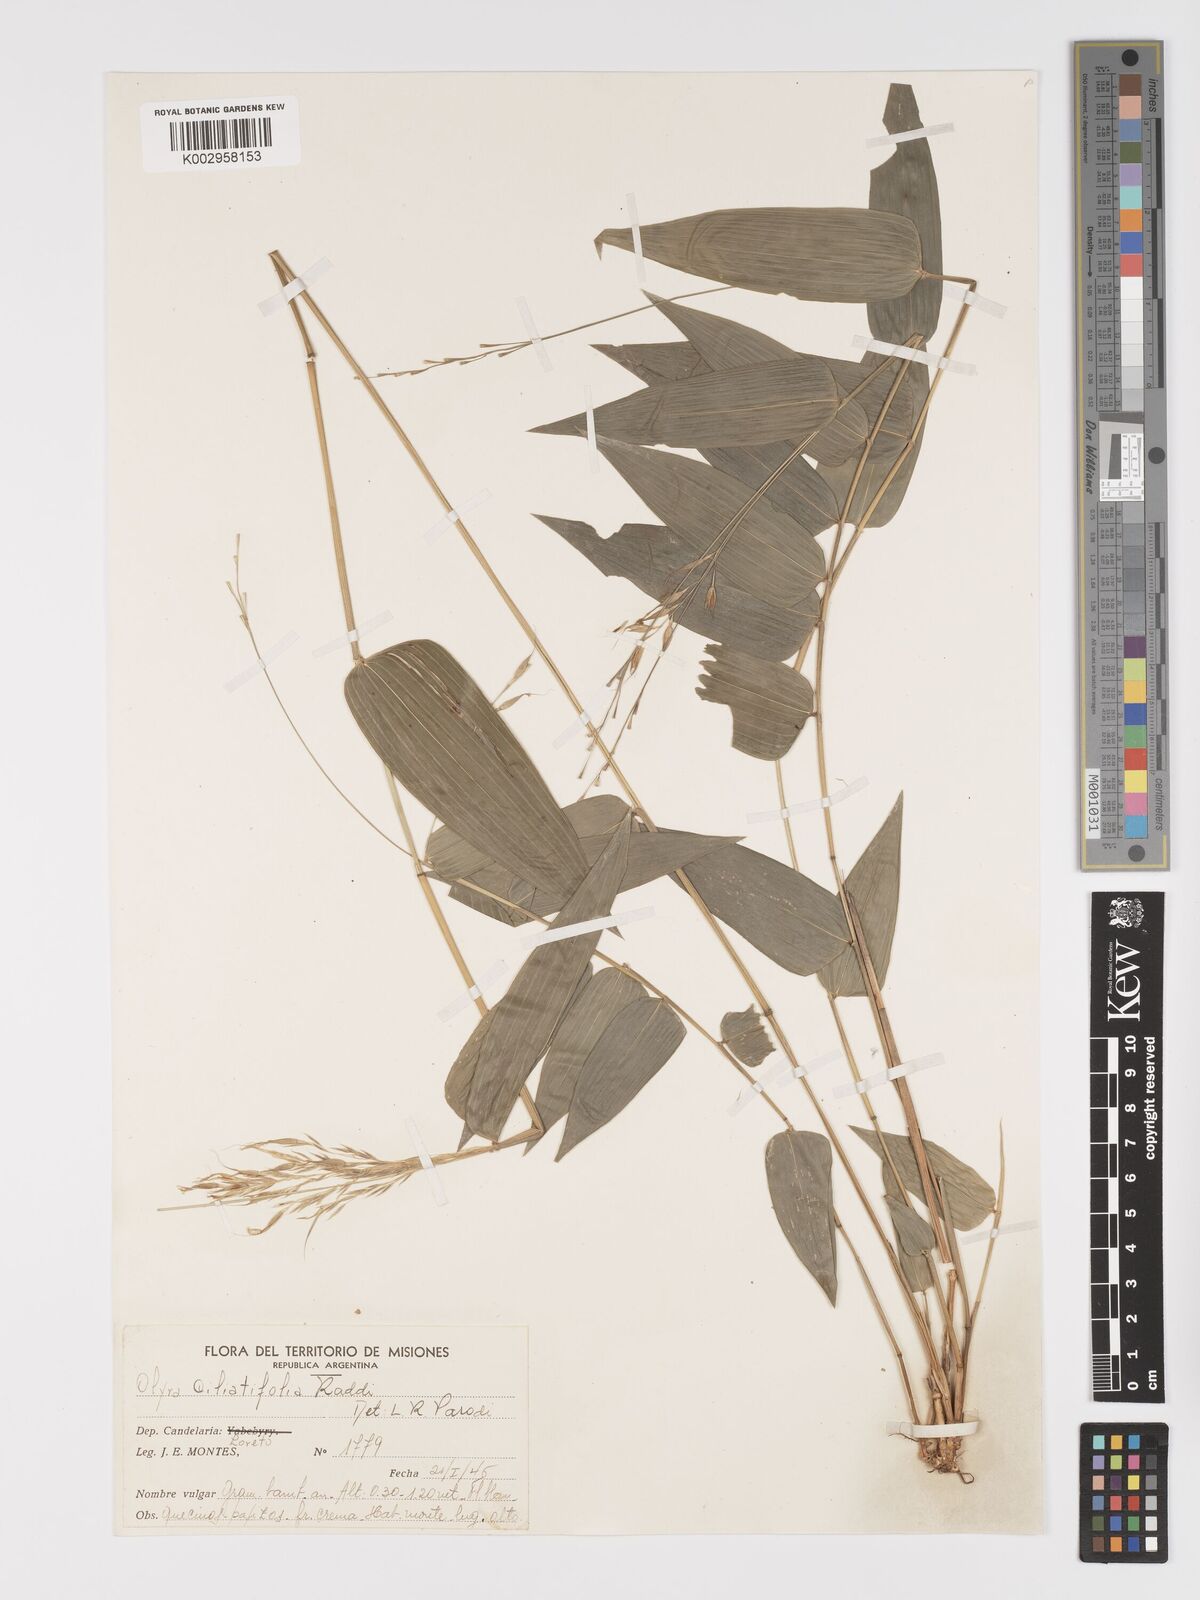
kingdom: Plantae
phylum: Tracheophyta
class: Liliopsida
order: Poales
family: Poaceae
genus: Olyra
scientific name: Olyra ciliatifolia
